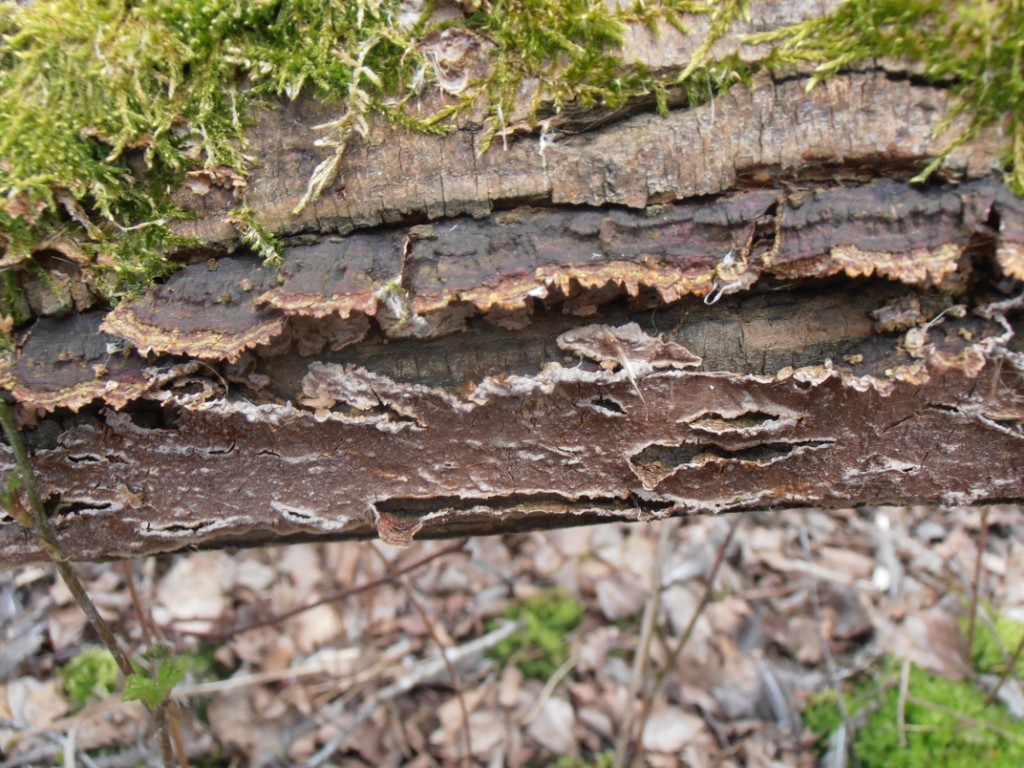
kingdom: Fungi
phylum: Basidiomycota
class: Agaricomycetes
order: Hymenochaetales
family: Hymenochaetaceae
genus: Hydnoporia
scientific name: Hydnoporia tabacina
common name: tobaksbrun ruslædersvamp
